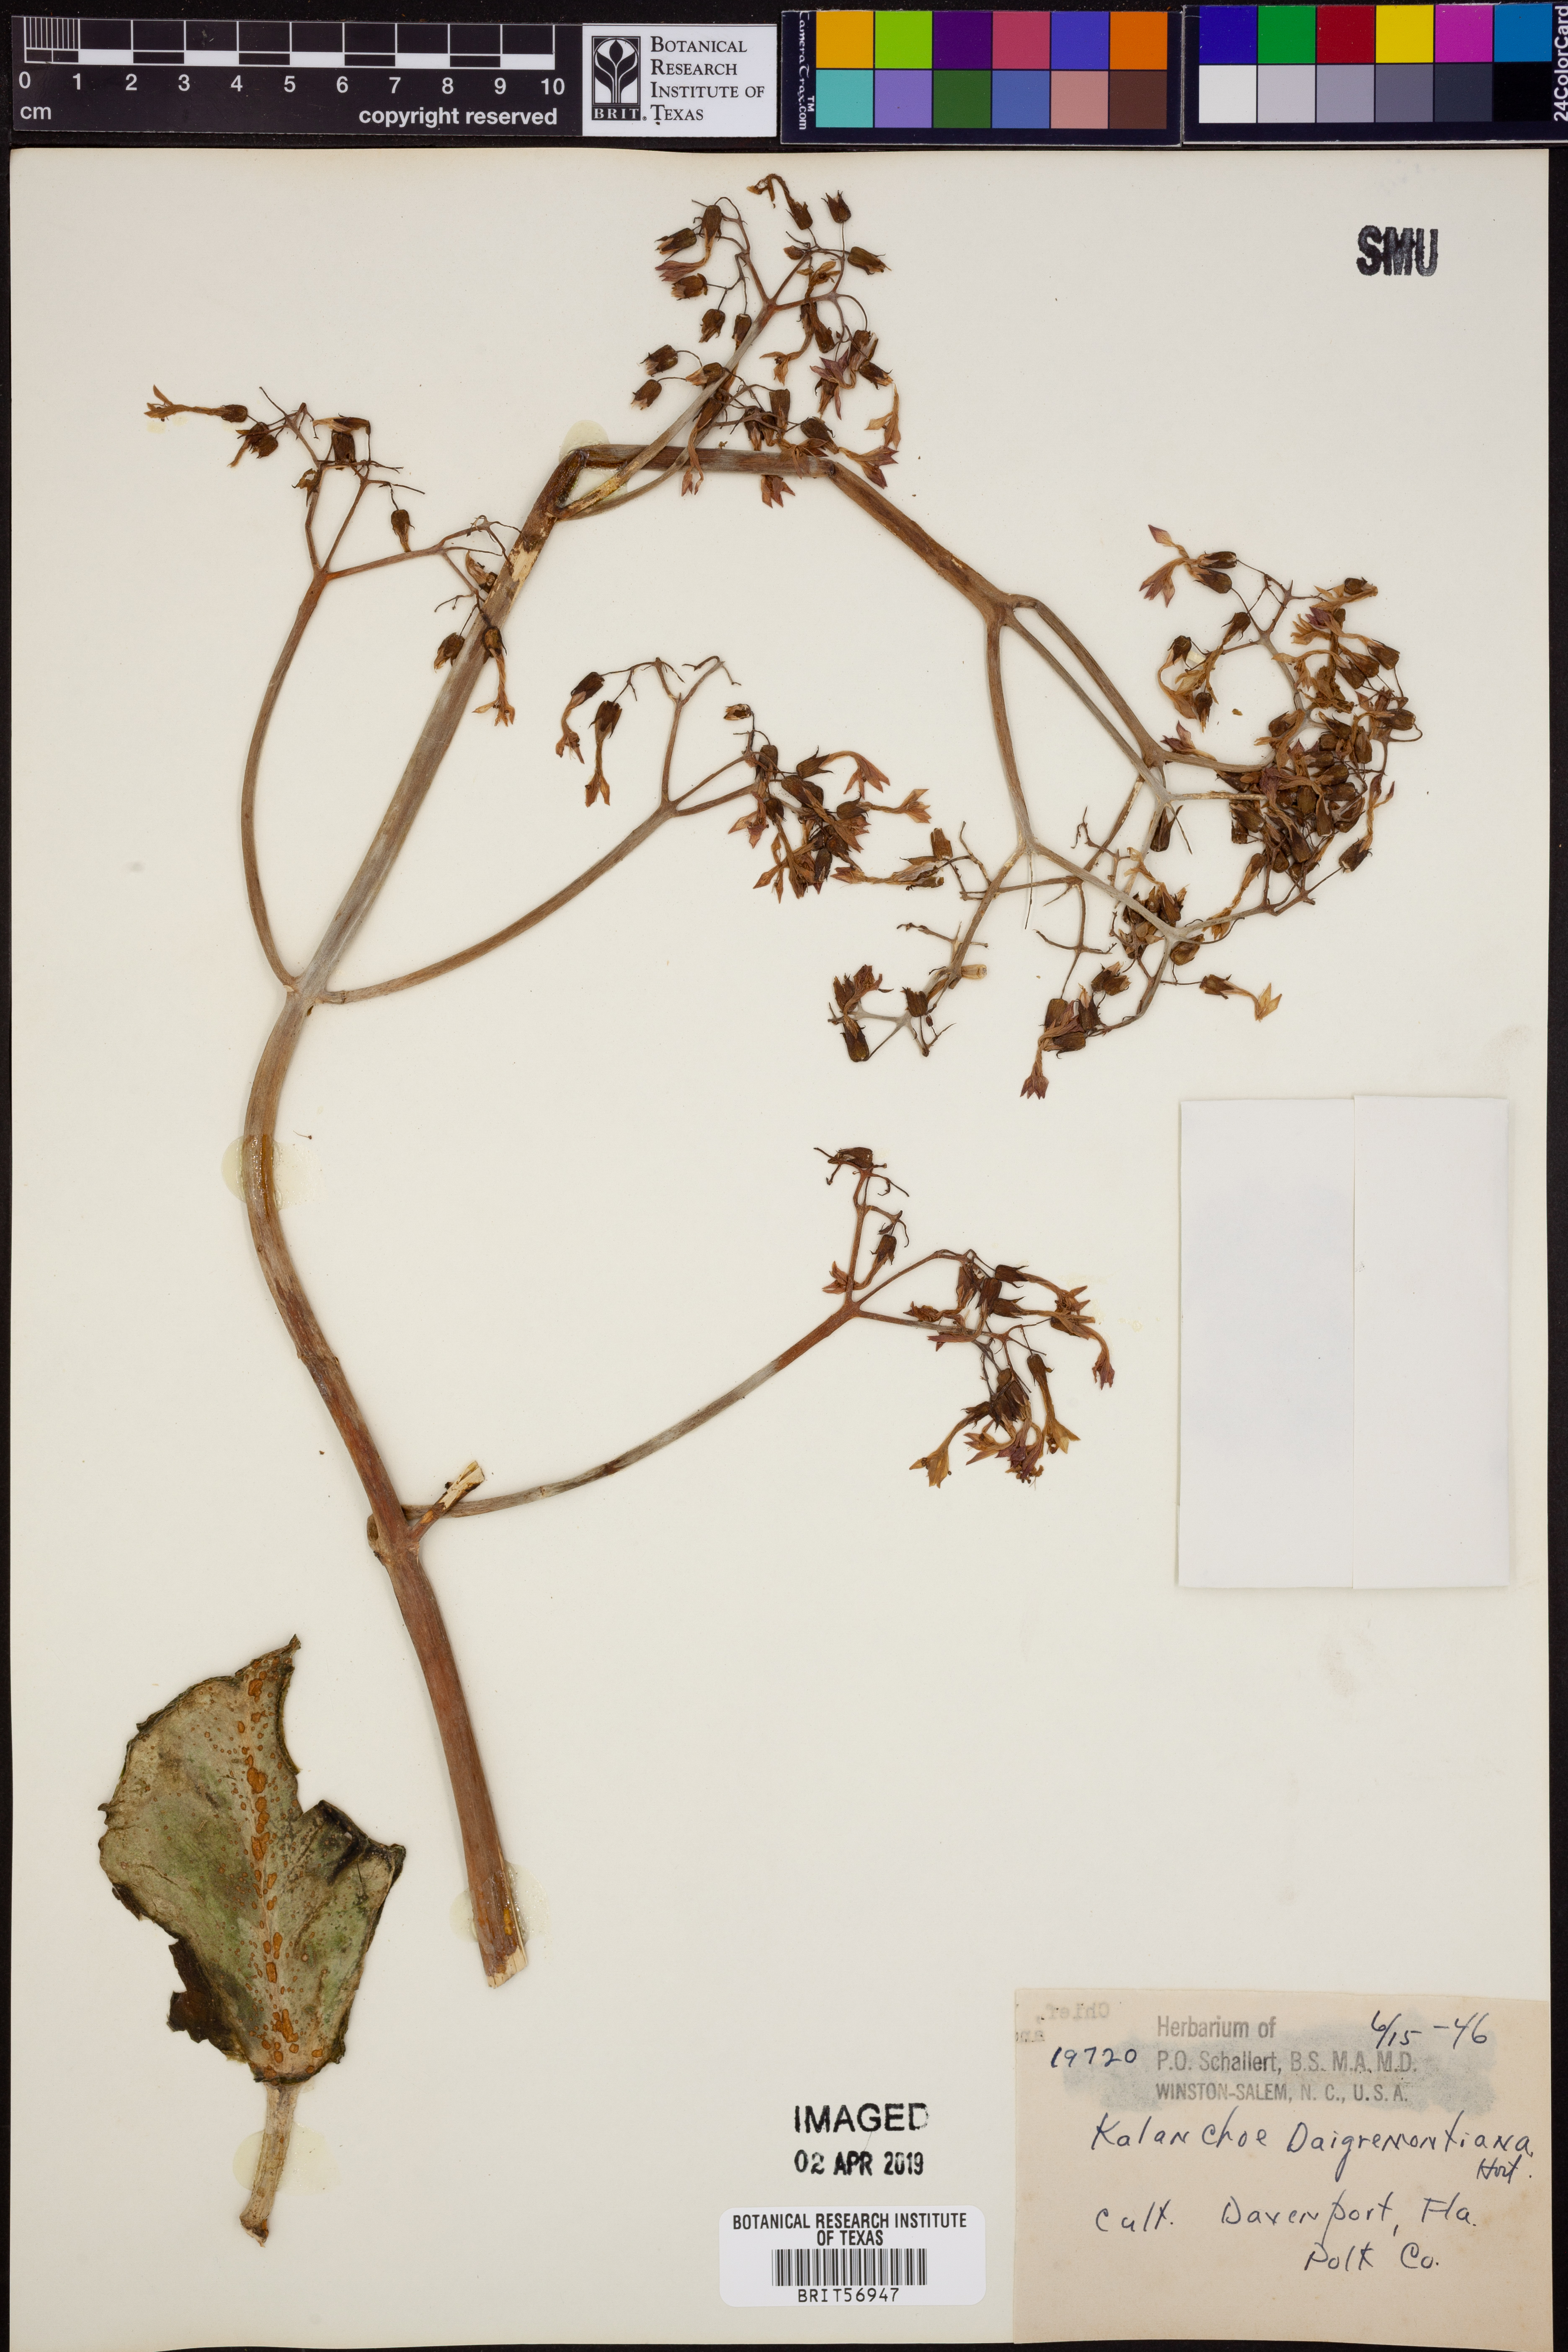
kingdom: Plantae
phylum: Tracheophyta
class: Magnoliopsida
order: Saxifragales
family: Crassulaceae
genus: Kalanchoe
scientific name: Kalanchoe daigremontiana
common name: Devil's backbone
